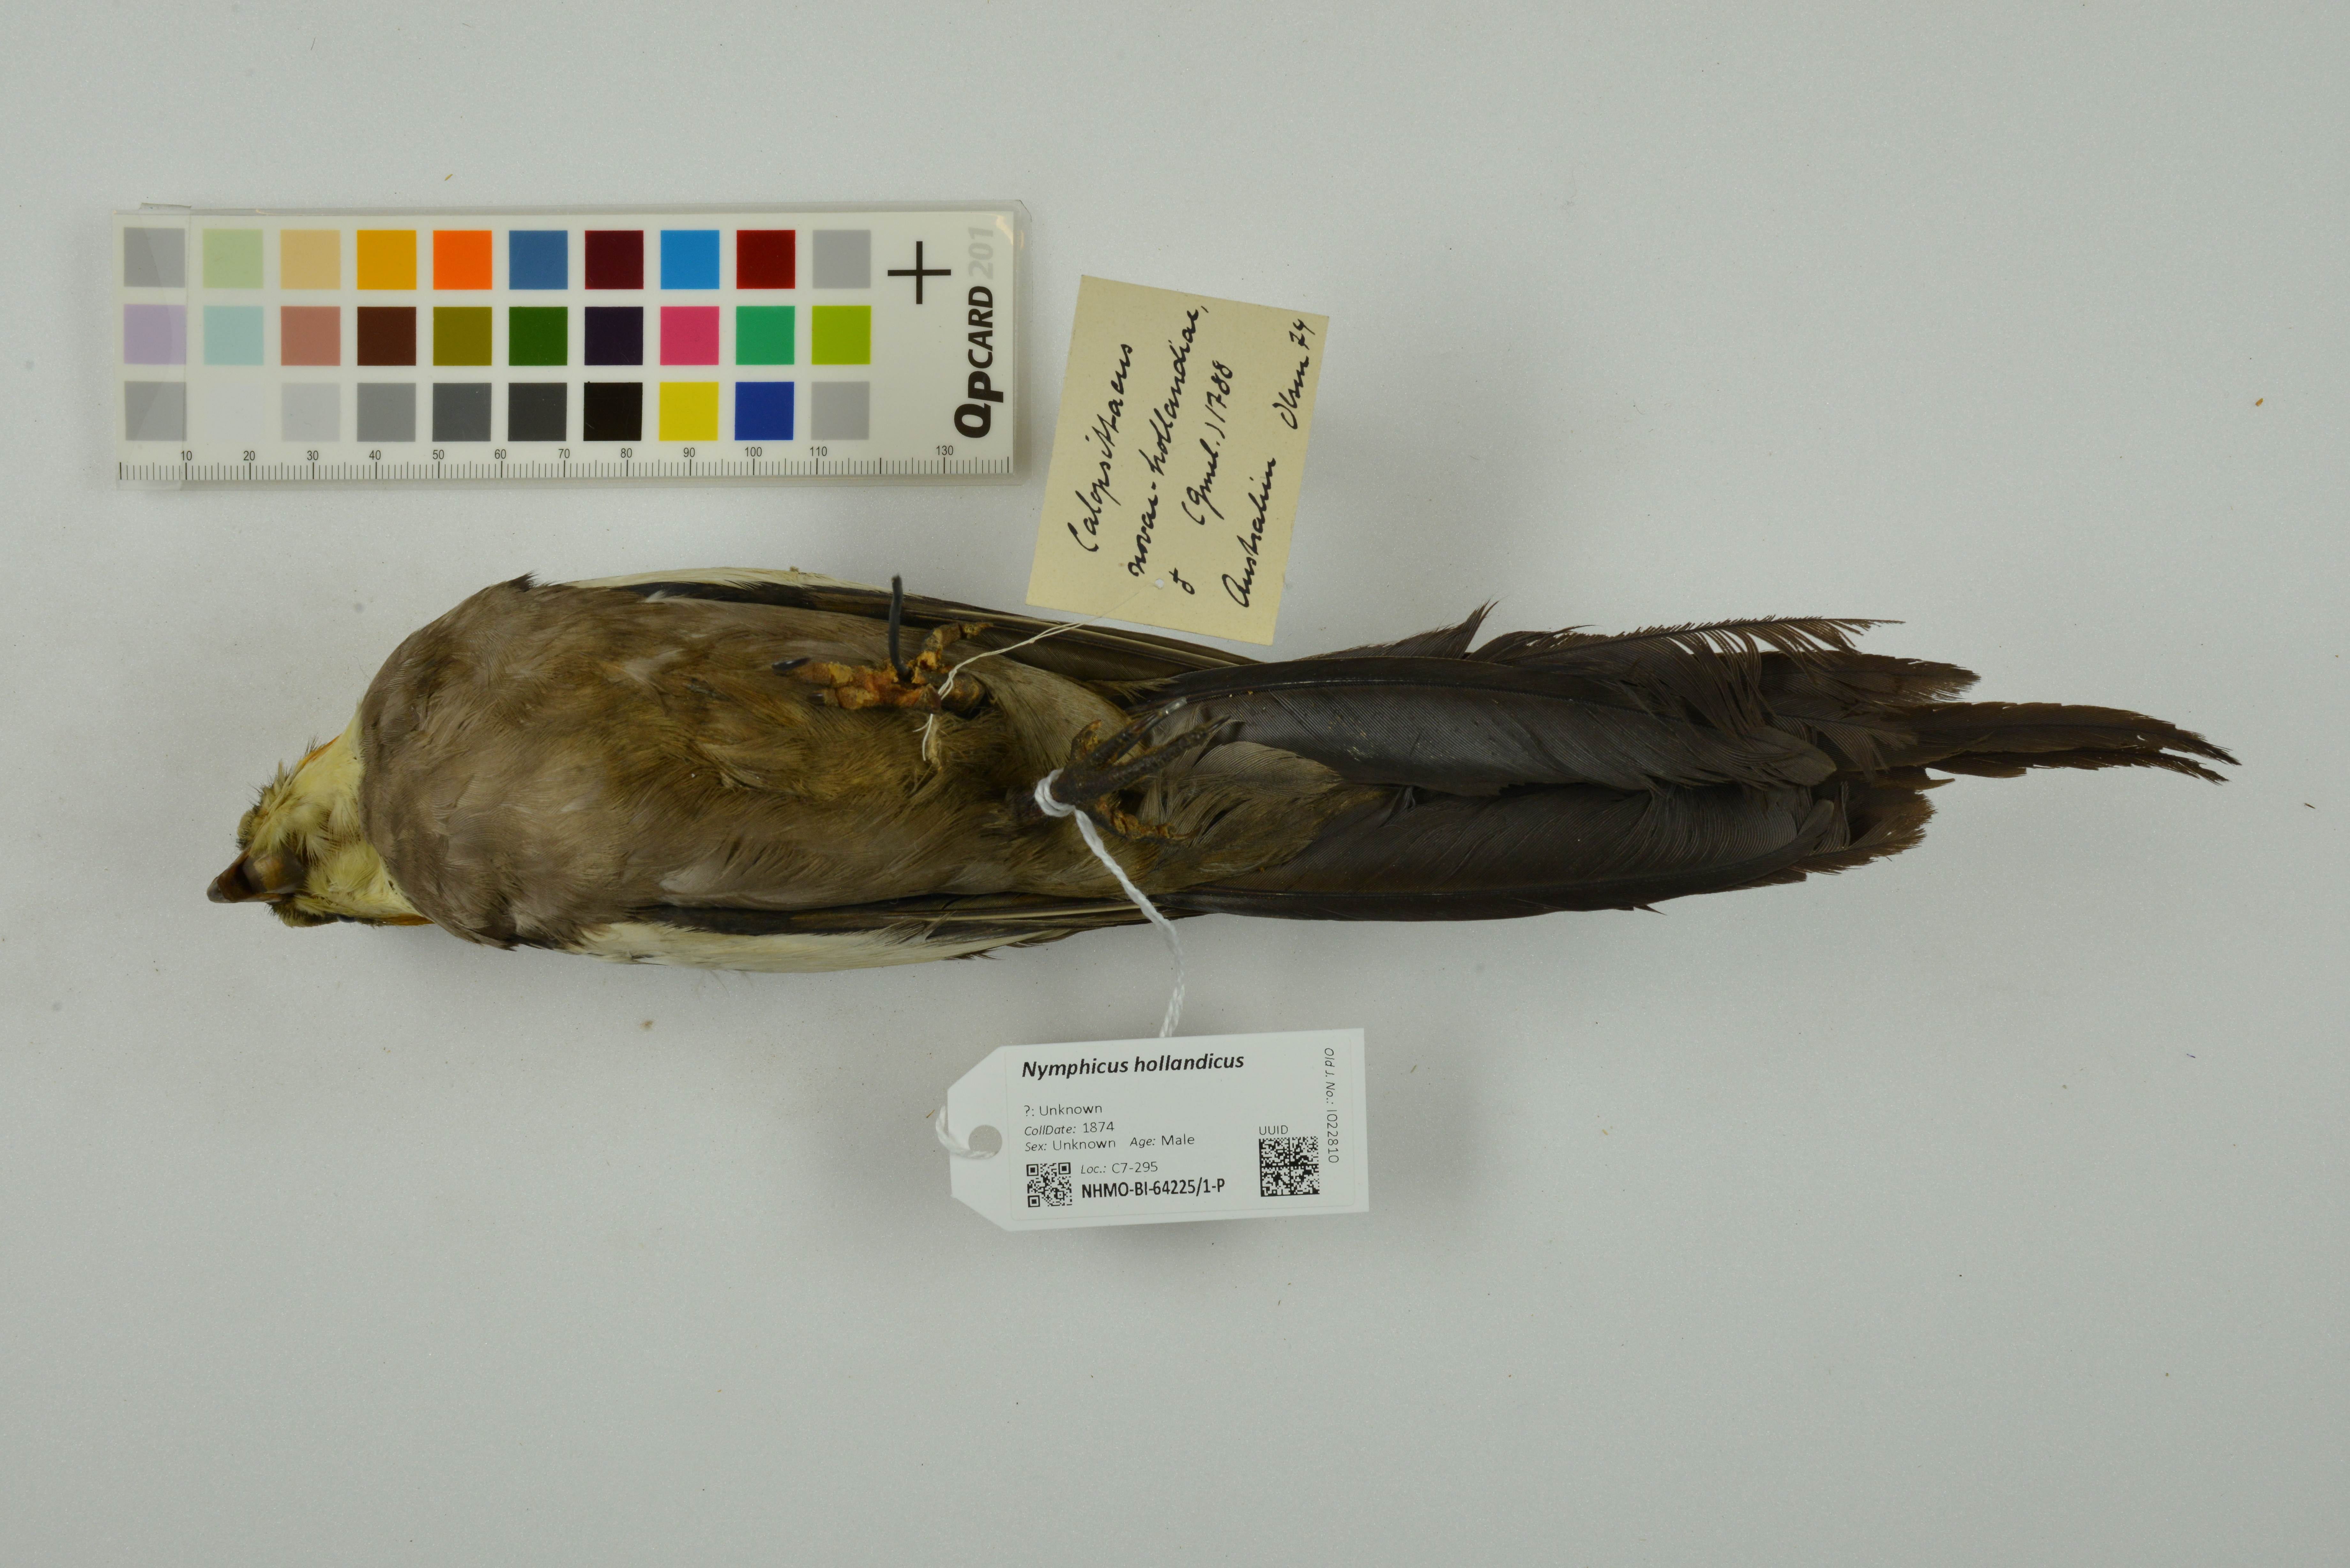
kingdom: Animalia
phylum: Chordata
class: Aves
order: Psittaciformes
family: Psittacidae
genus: Nymphicus
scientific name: Nymphicus hollandicus
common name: Cockatiel
